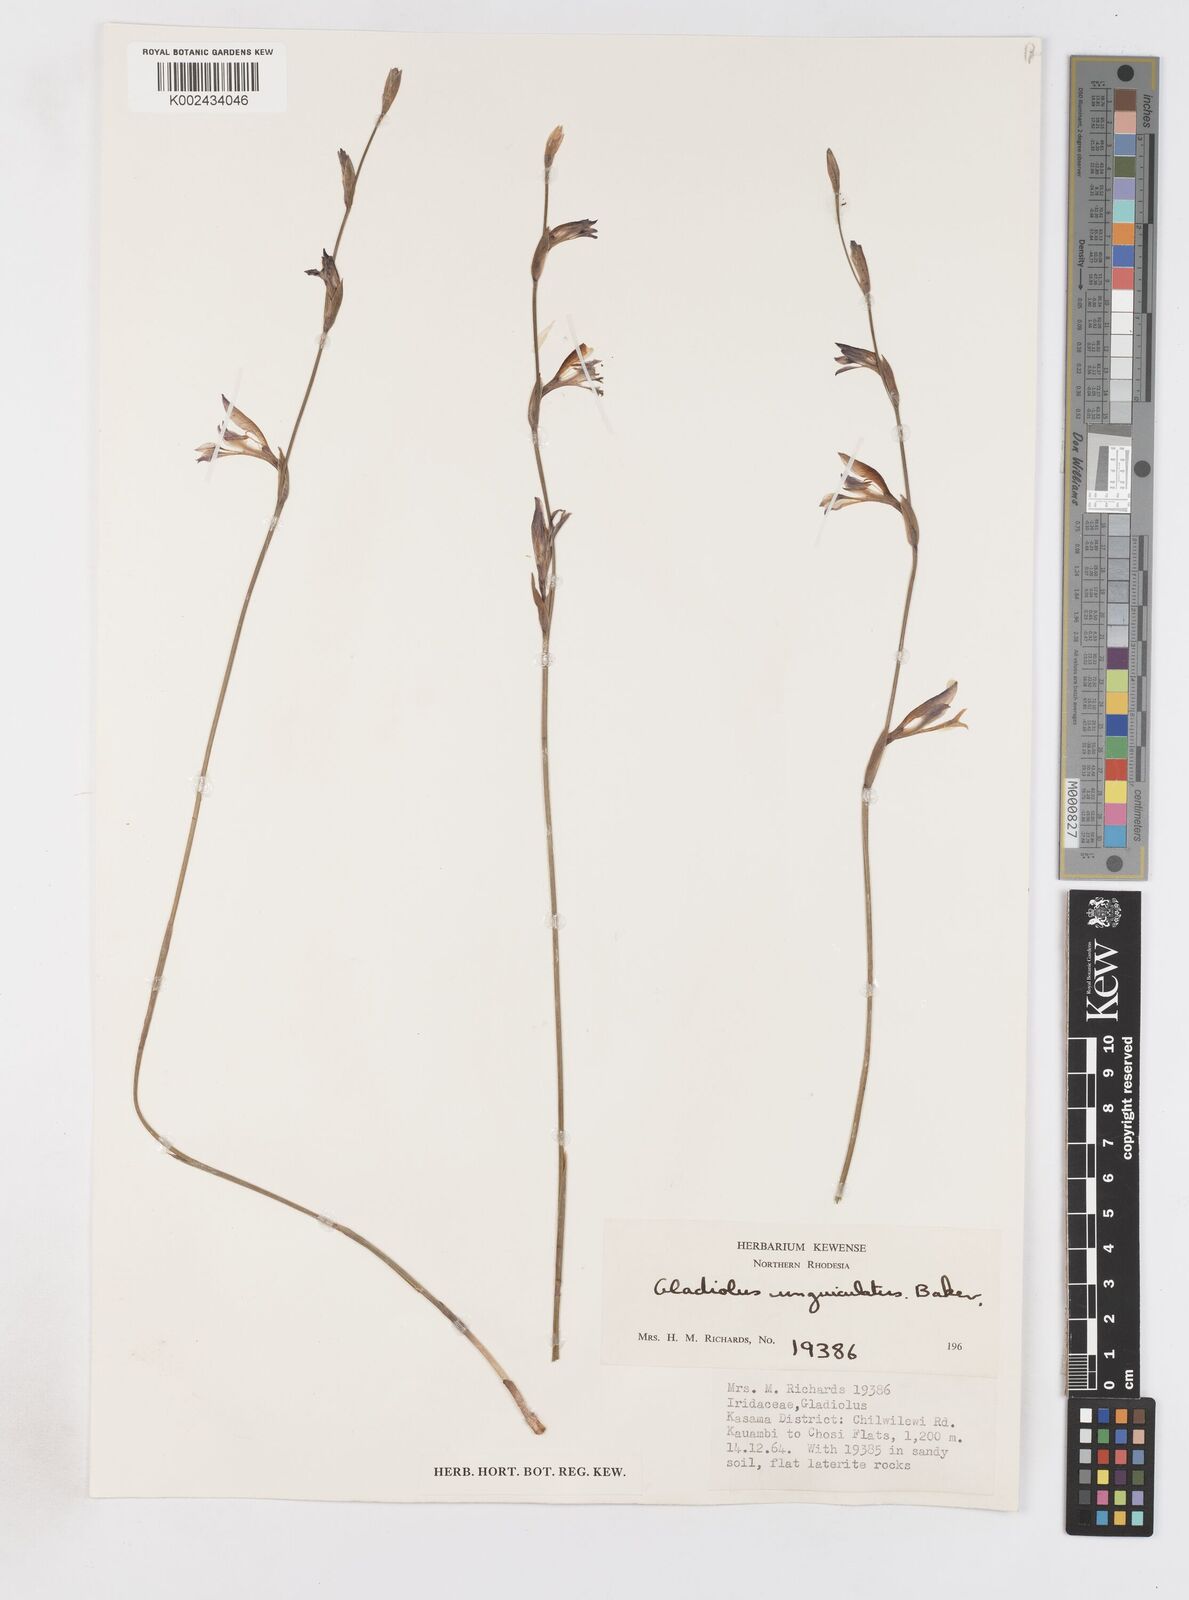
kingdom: Plantae
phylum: Tracheophyta
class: Liliopsida
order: Asparagales
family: Iridaceae
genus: Gladiolus
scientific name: Gladiolus atropurpureus
